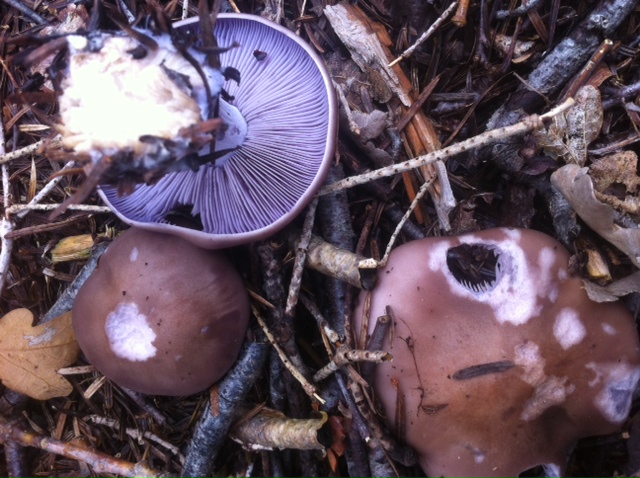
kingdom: Fungi
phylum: Basidiomycota
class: Agaricomycetes
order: Agaricales
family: Tricholomataceae
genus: Lepista
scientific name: Lepista nuda
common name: violet hekseringshat
